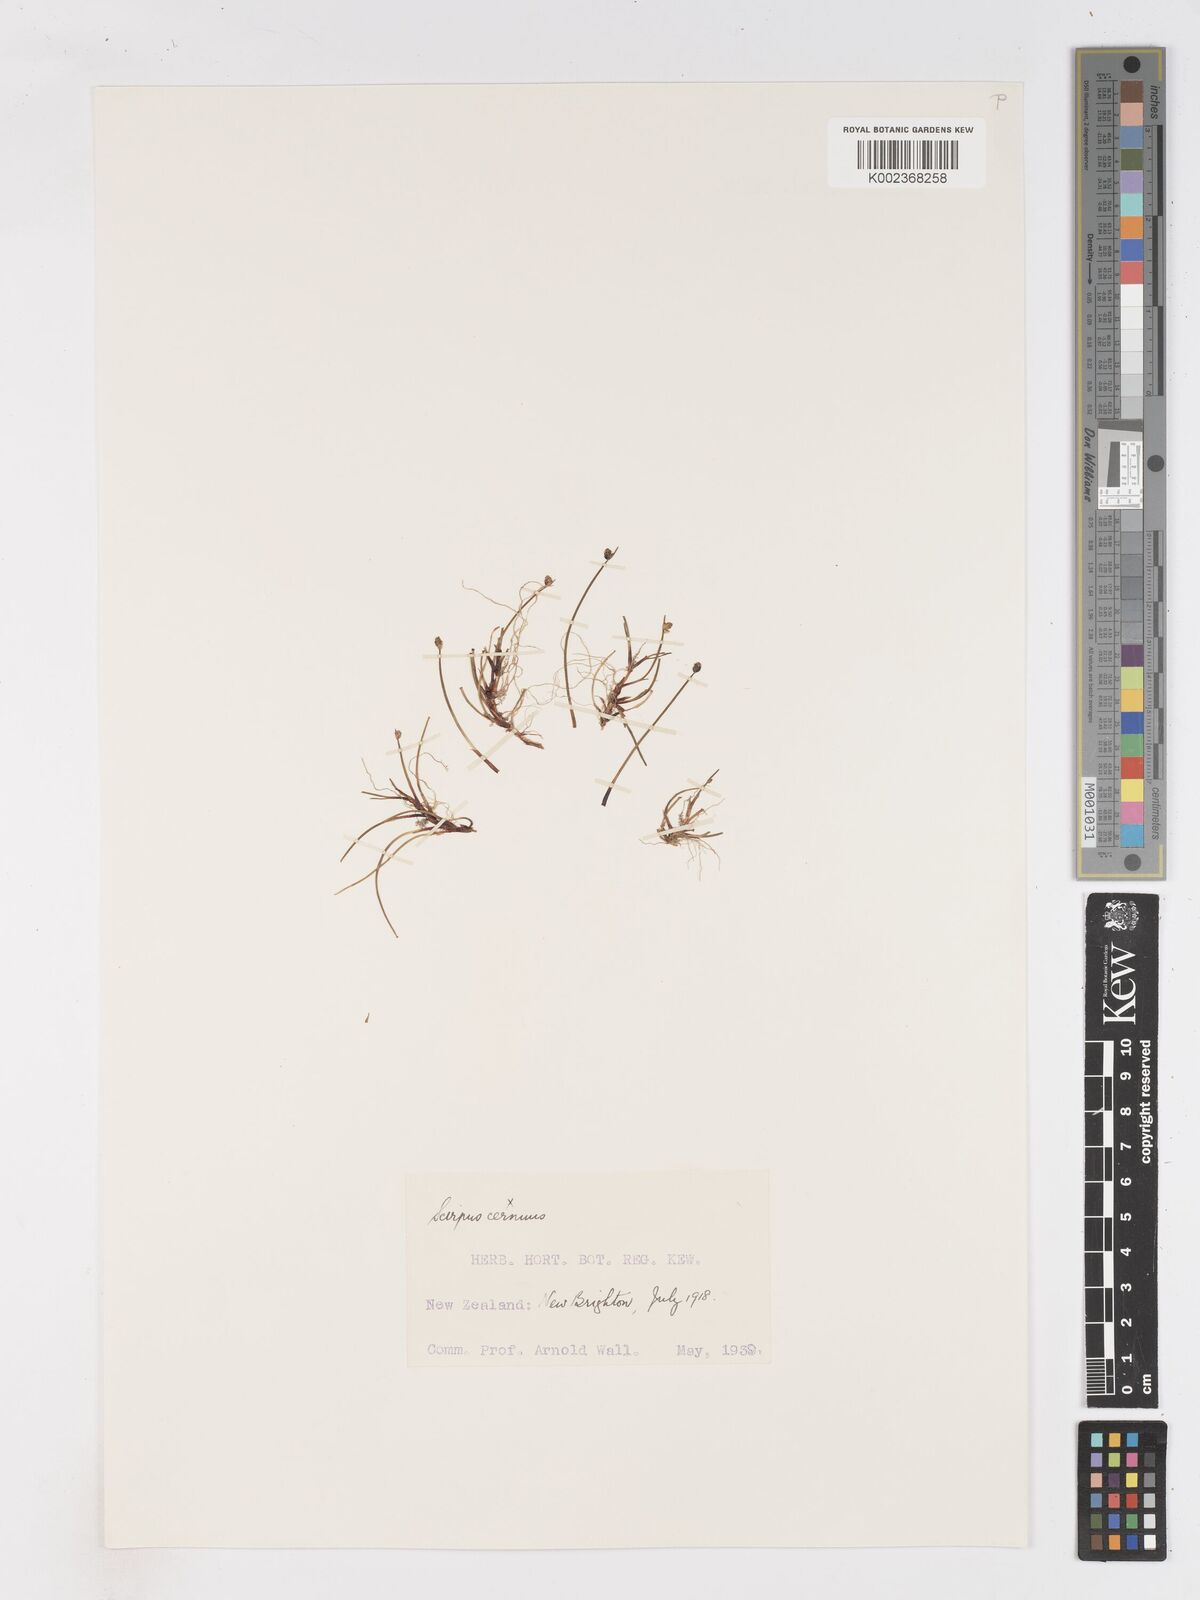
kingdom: Plantae
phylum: Tracheophyta
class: Liliopsida
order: Poales
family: Cyperaceae
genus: Isolepis
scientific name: Isolepis cernua
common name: Slender club-rush
